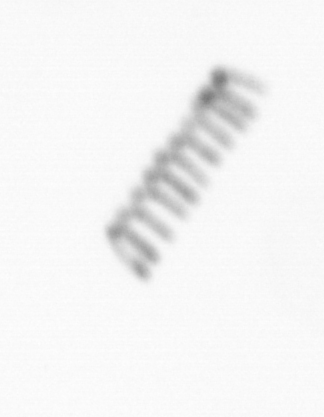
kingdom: Chromista
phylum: Ochrophyta
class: Bacillariophyceae
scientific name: Bacillariophyceae
